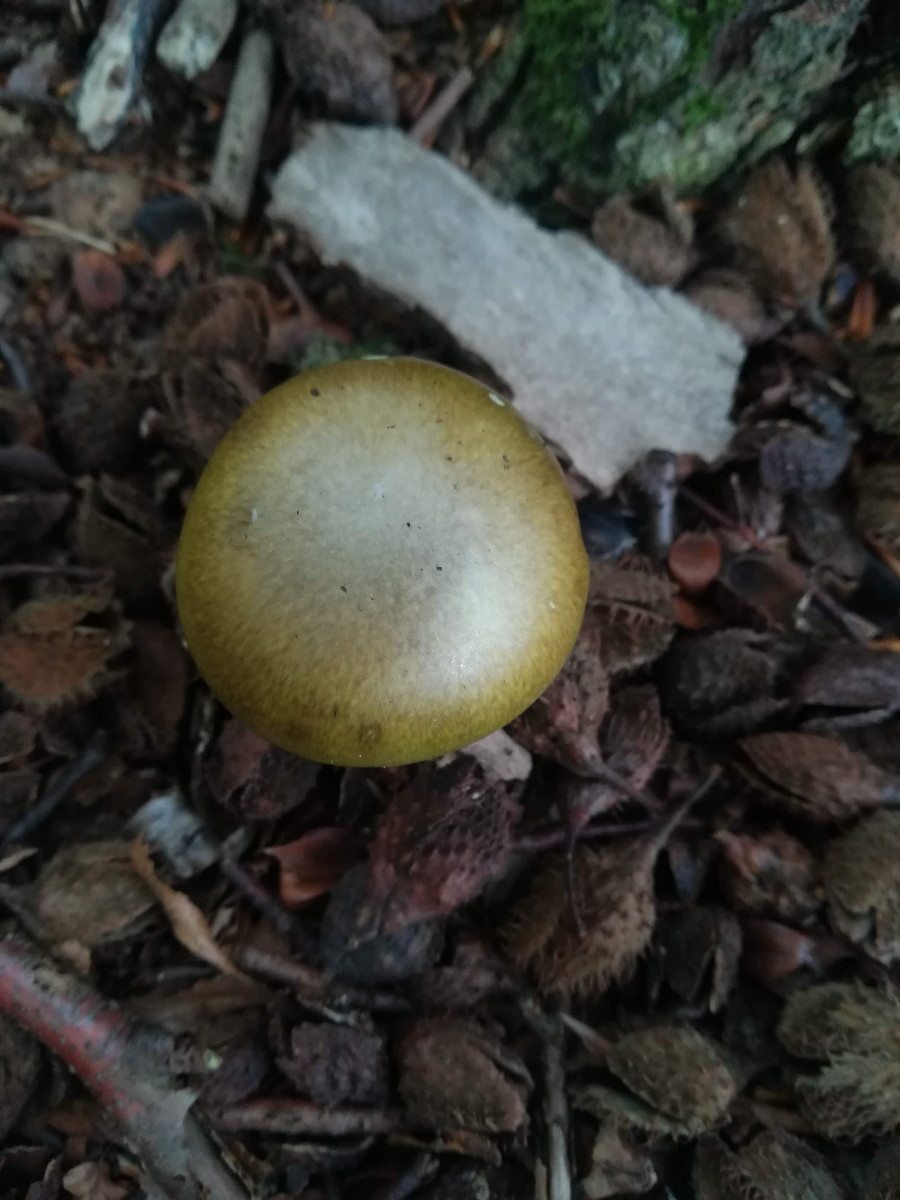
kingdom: Fungi
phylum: Basidiomycota
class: Agaricomycetes
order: Agaricales
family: Amanitaceae
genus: Amanita
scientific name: Amanita phalloides
